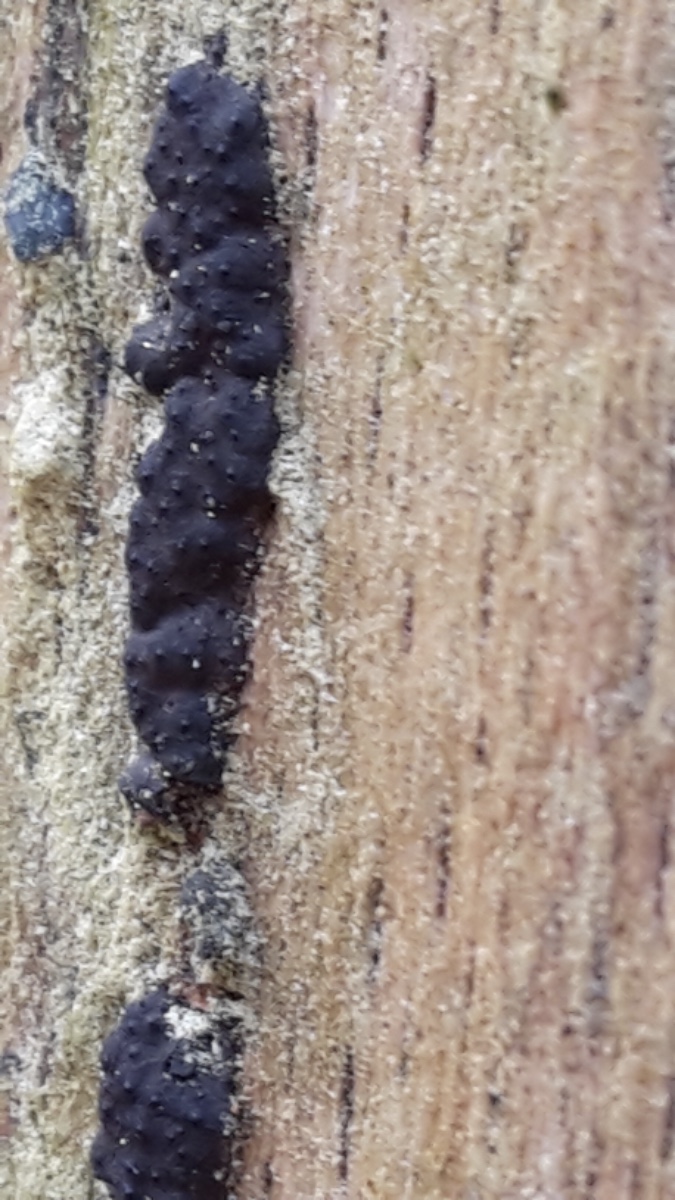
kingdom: Fungi
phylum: Ascomycota
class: Sordariomycetes
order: Xylariales
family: Xylariaceae
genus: Nemania
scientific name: Nemania
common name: kuldyne
